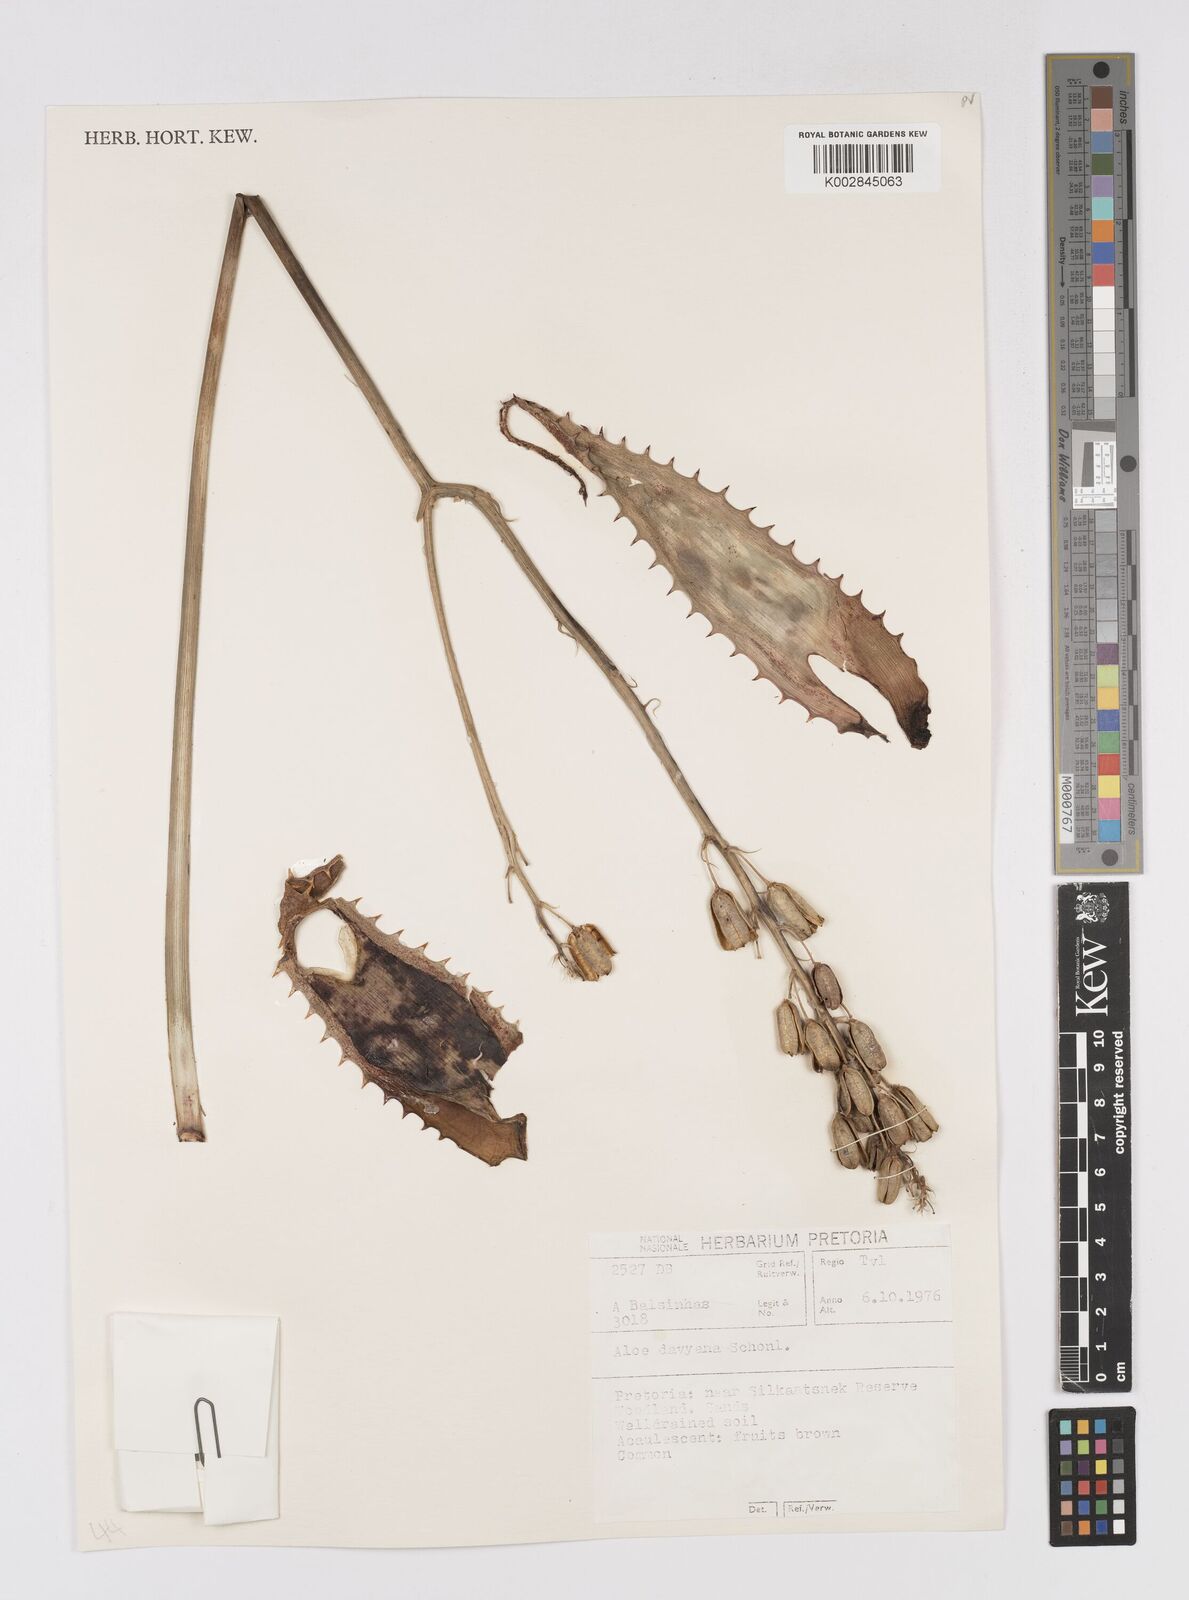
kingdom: Plantae
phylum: Tracheophyta
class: Liliopsida
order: Asparagales
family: Asphodelaceae
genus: Aloe
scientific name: Aloe davyana
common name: Spotted aloe
